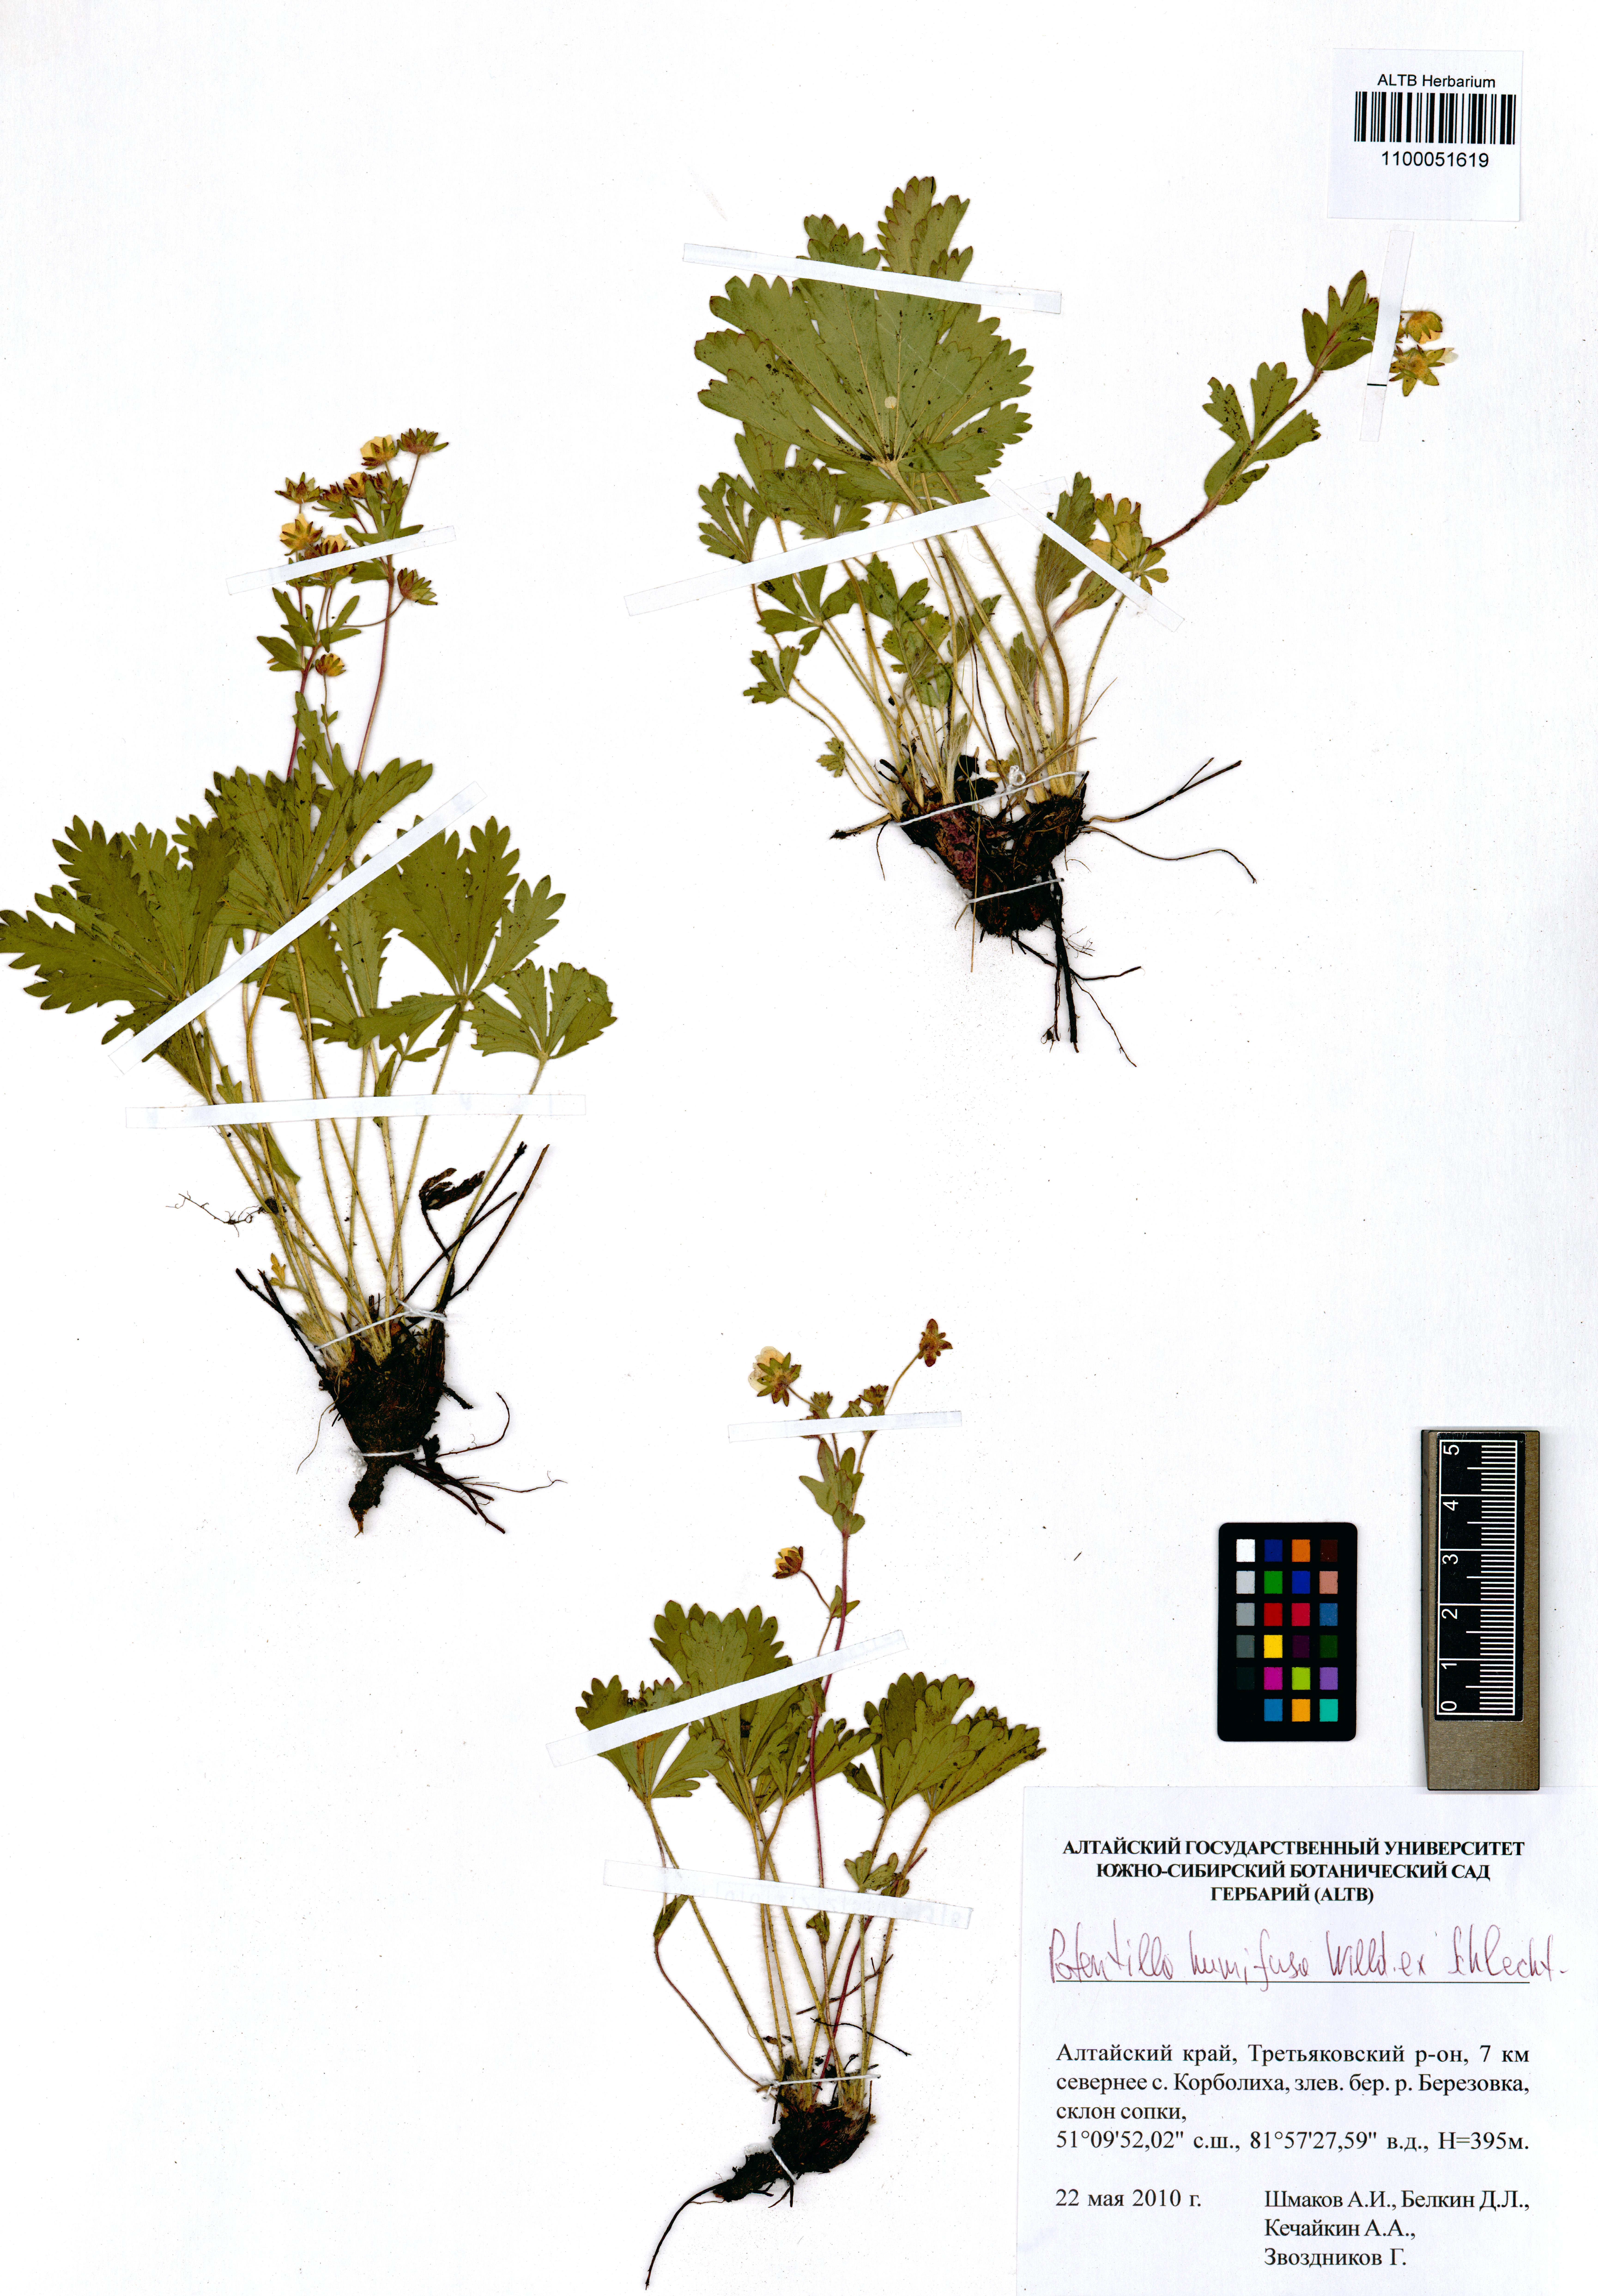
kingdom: Plantae
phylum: Tracheophyta
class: Magnoliopsida
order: Rosales
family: Rosaceae
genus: Potentilla
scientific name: Potentilla humifusa
